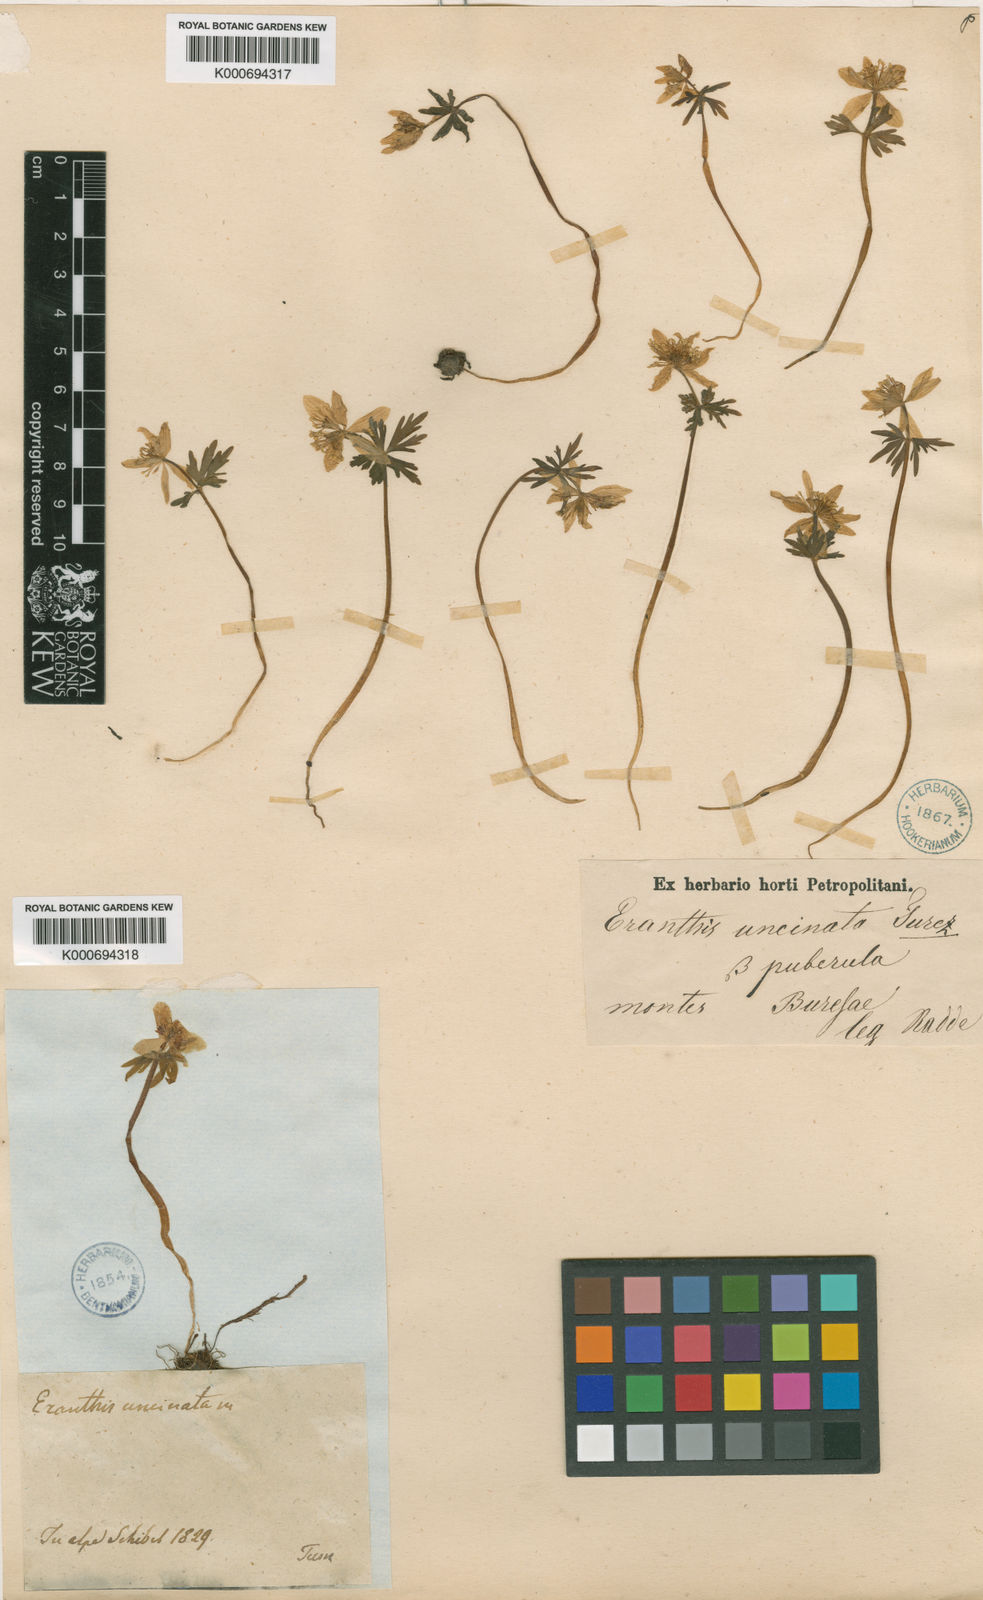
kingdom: Plantae
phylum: Tracheophyta
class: Magnoliopsida
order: Ranunculales
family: Ranunculaceae
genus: Eranthis
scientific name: Eranthis sibirica
